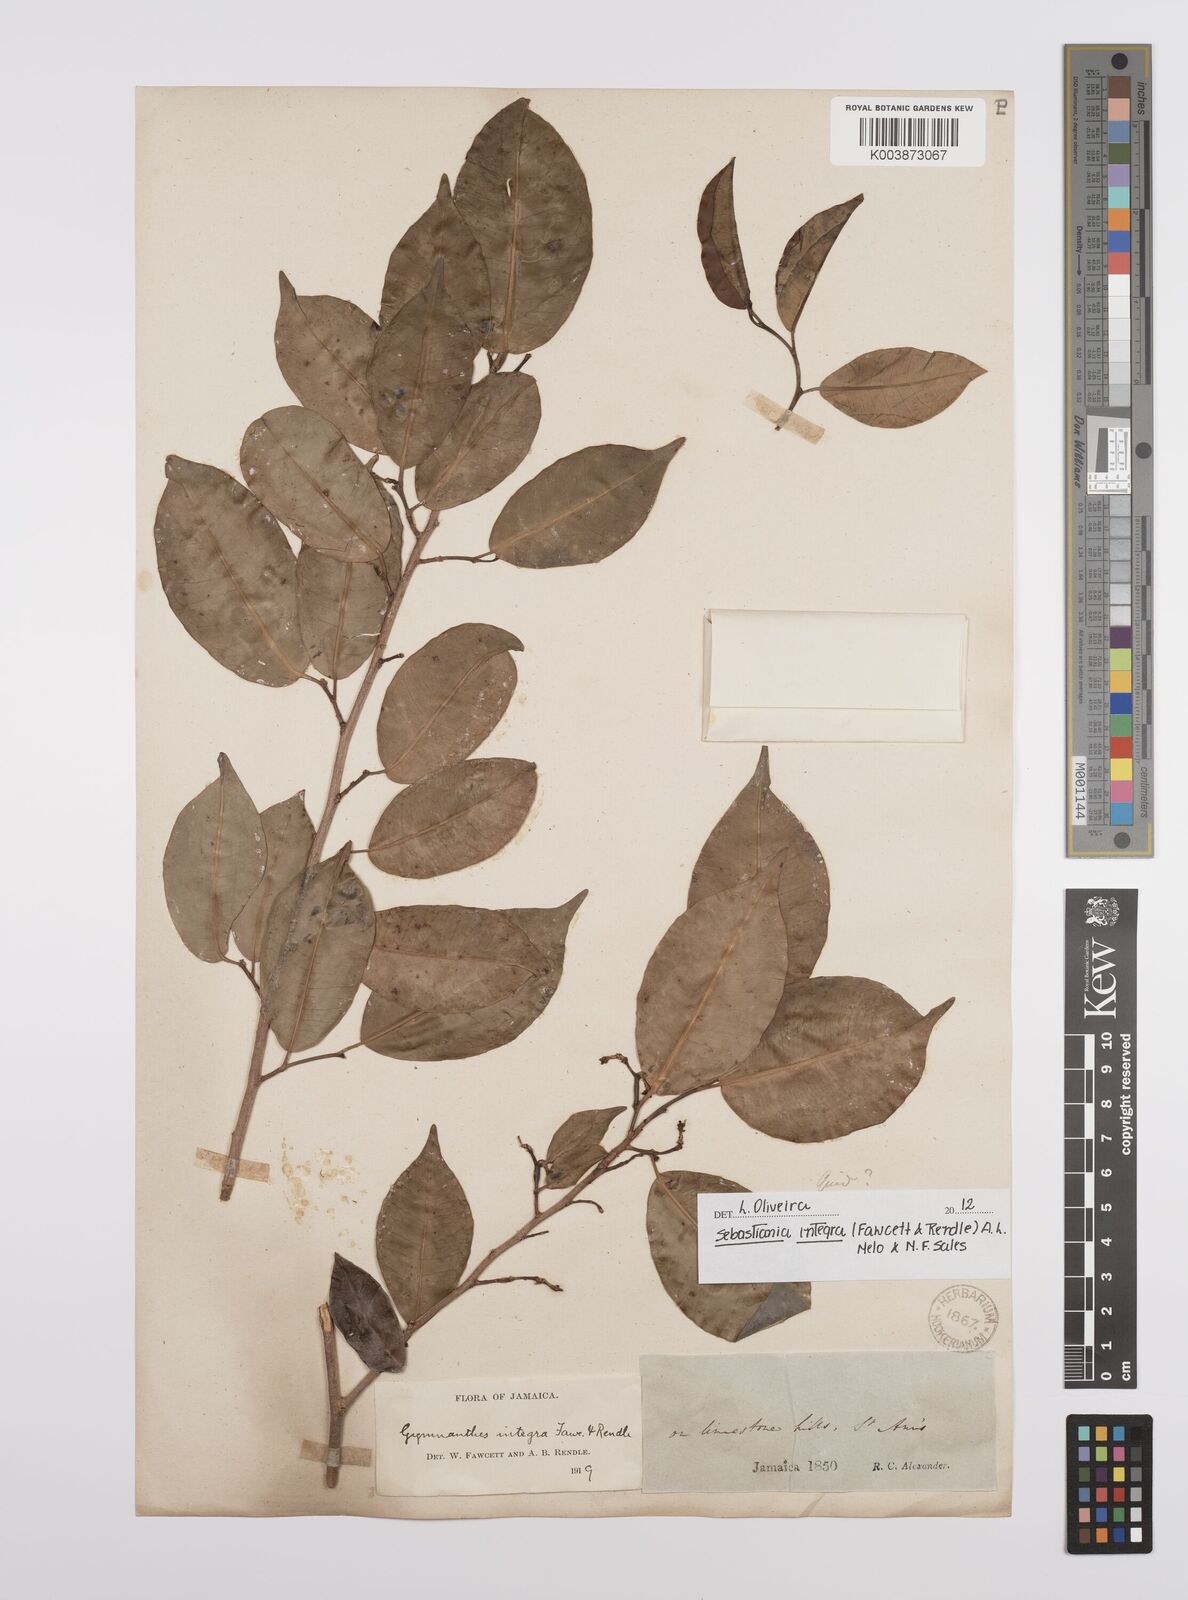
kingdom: Plantae
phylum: Tracheophyta
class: Magnoliopsida
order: Malpighiales
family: Euphorbiaceae
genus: Sebastiania
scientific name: Sebastiania integra
